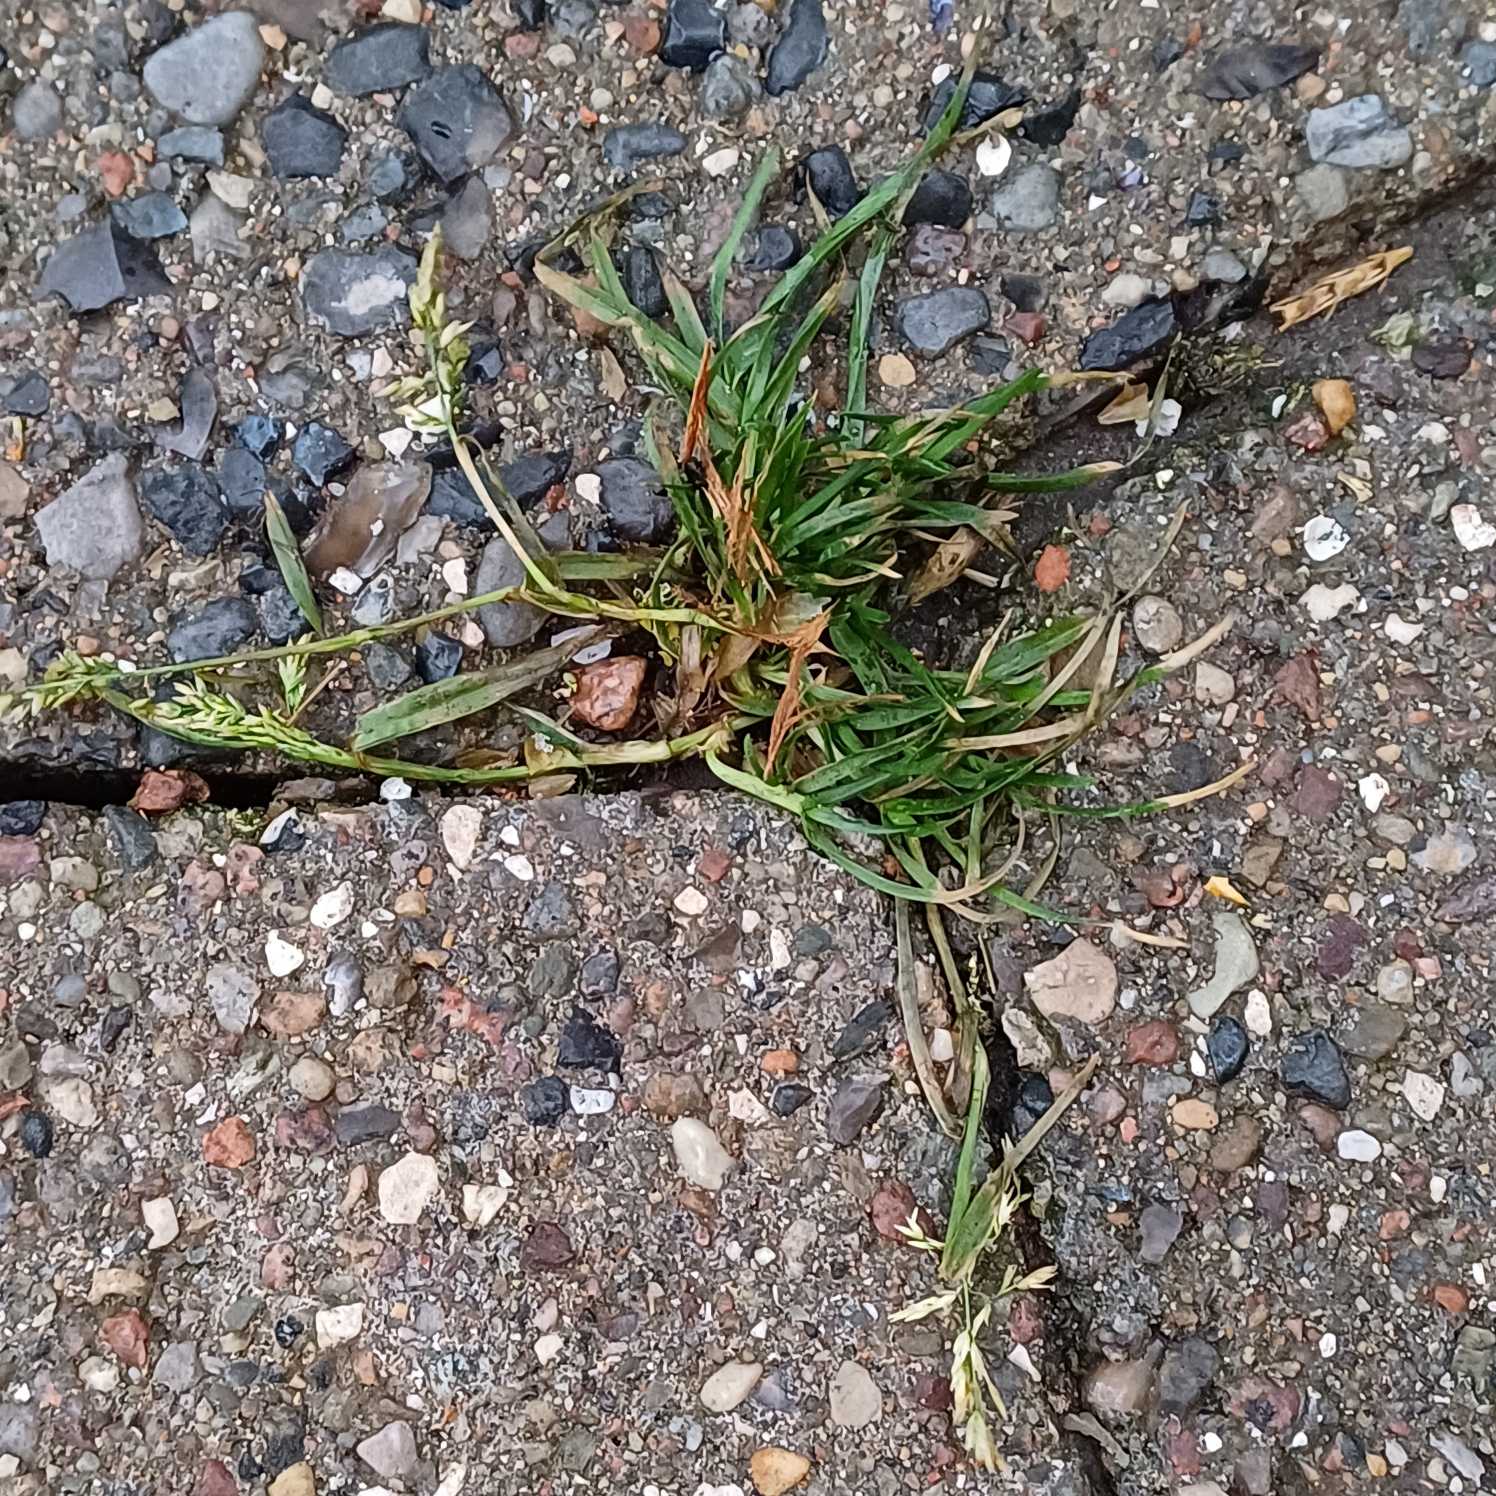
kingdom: Plantae
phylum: Tracheophyta
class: Liliopsida
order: Poales
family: Poaceae
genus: Poa
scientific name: Poa annua
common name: Enårig rapgræs
